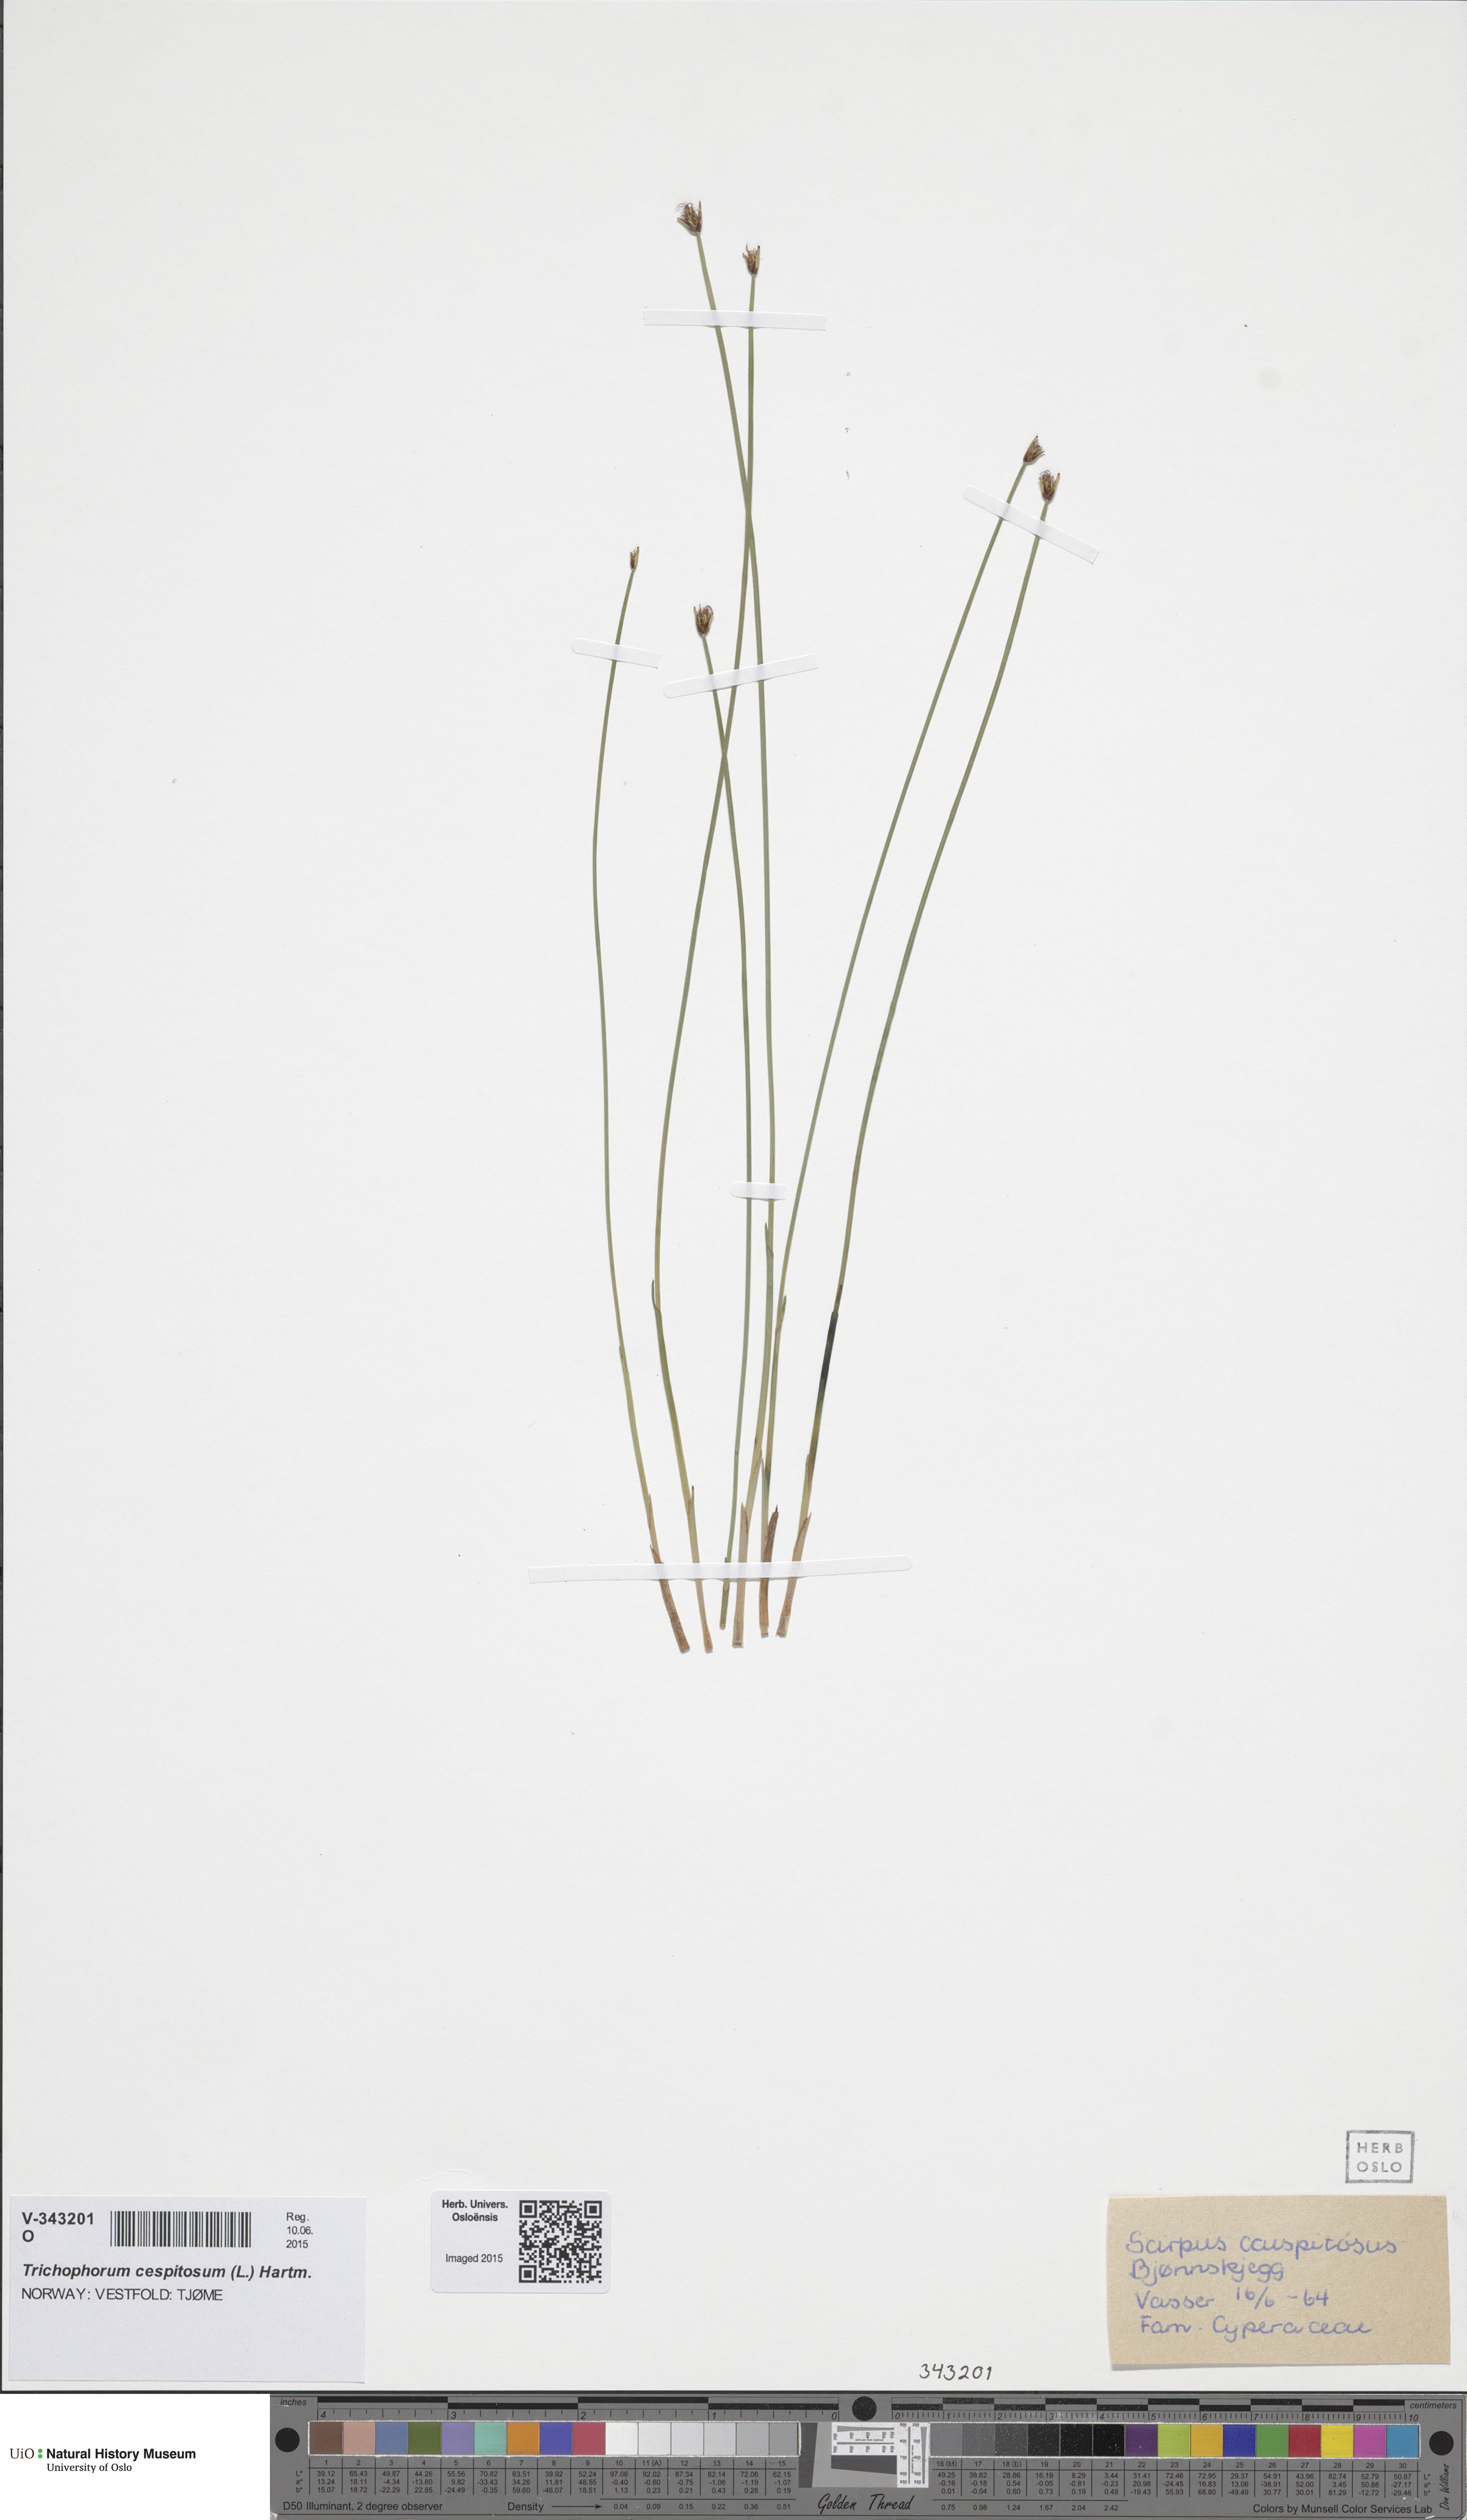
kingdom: Plantae
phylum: Tracheophyta
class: Liliopsida
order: Poales
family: Cyperaceae
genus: Trichophorum
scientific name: Trichophorum cespitosum
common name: Cespitose bulrush
